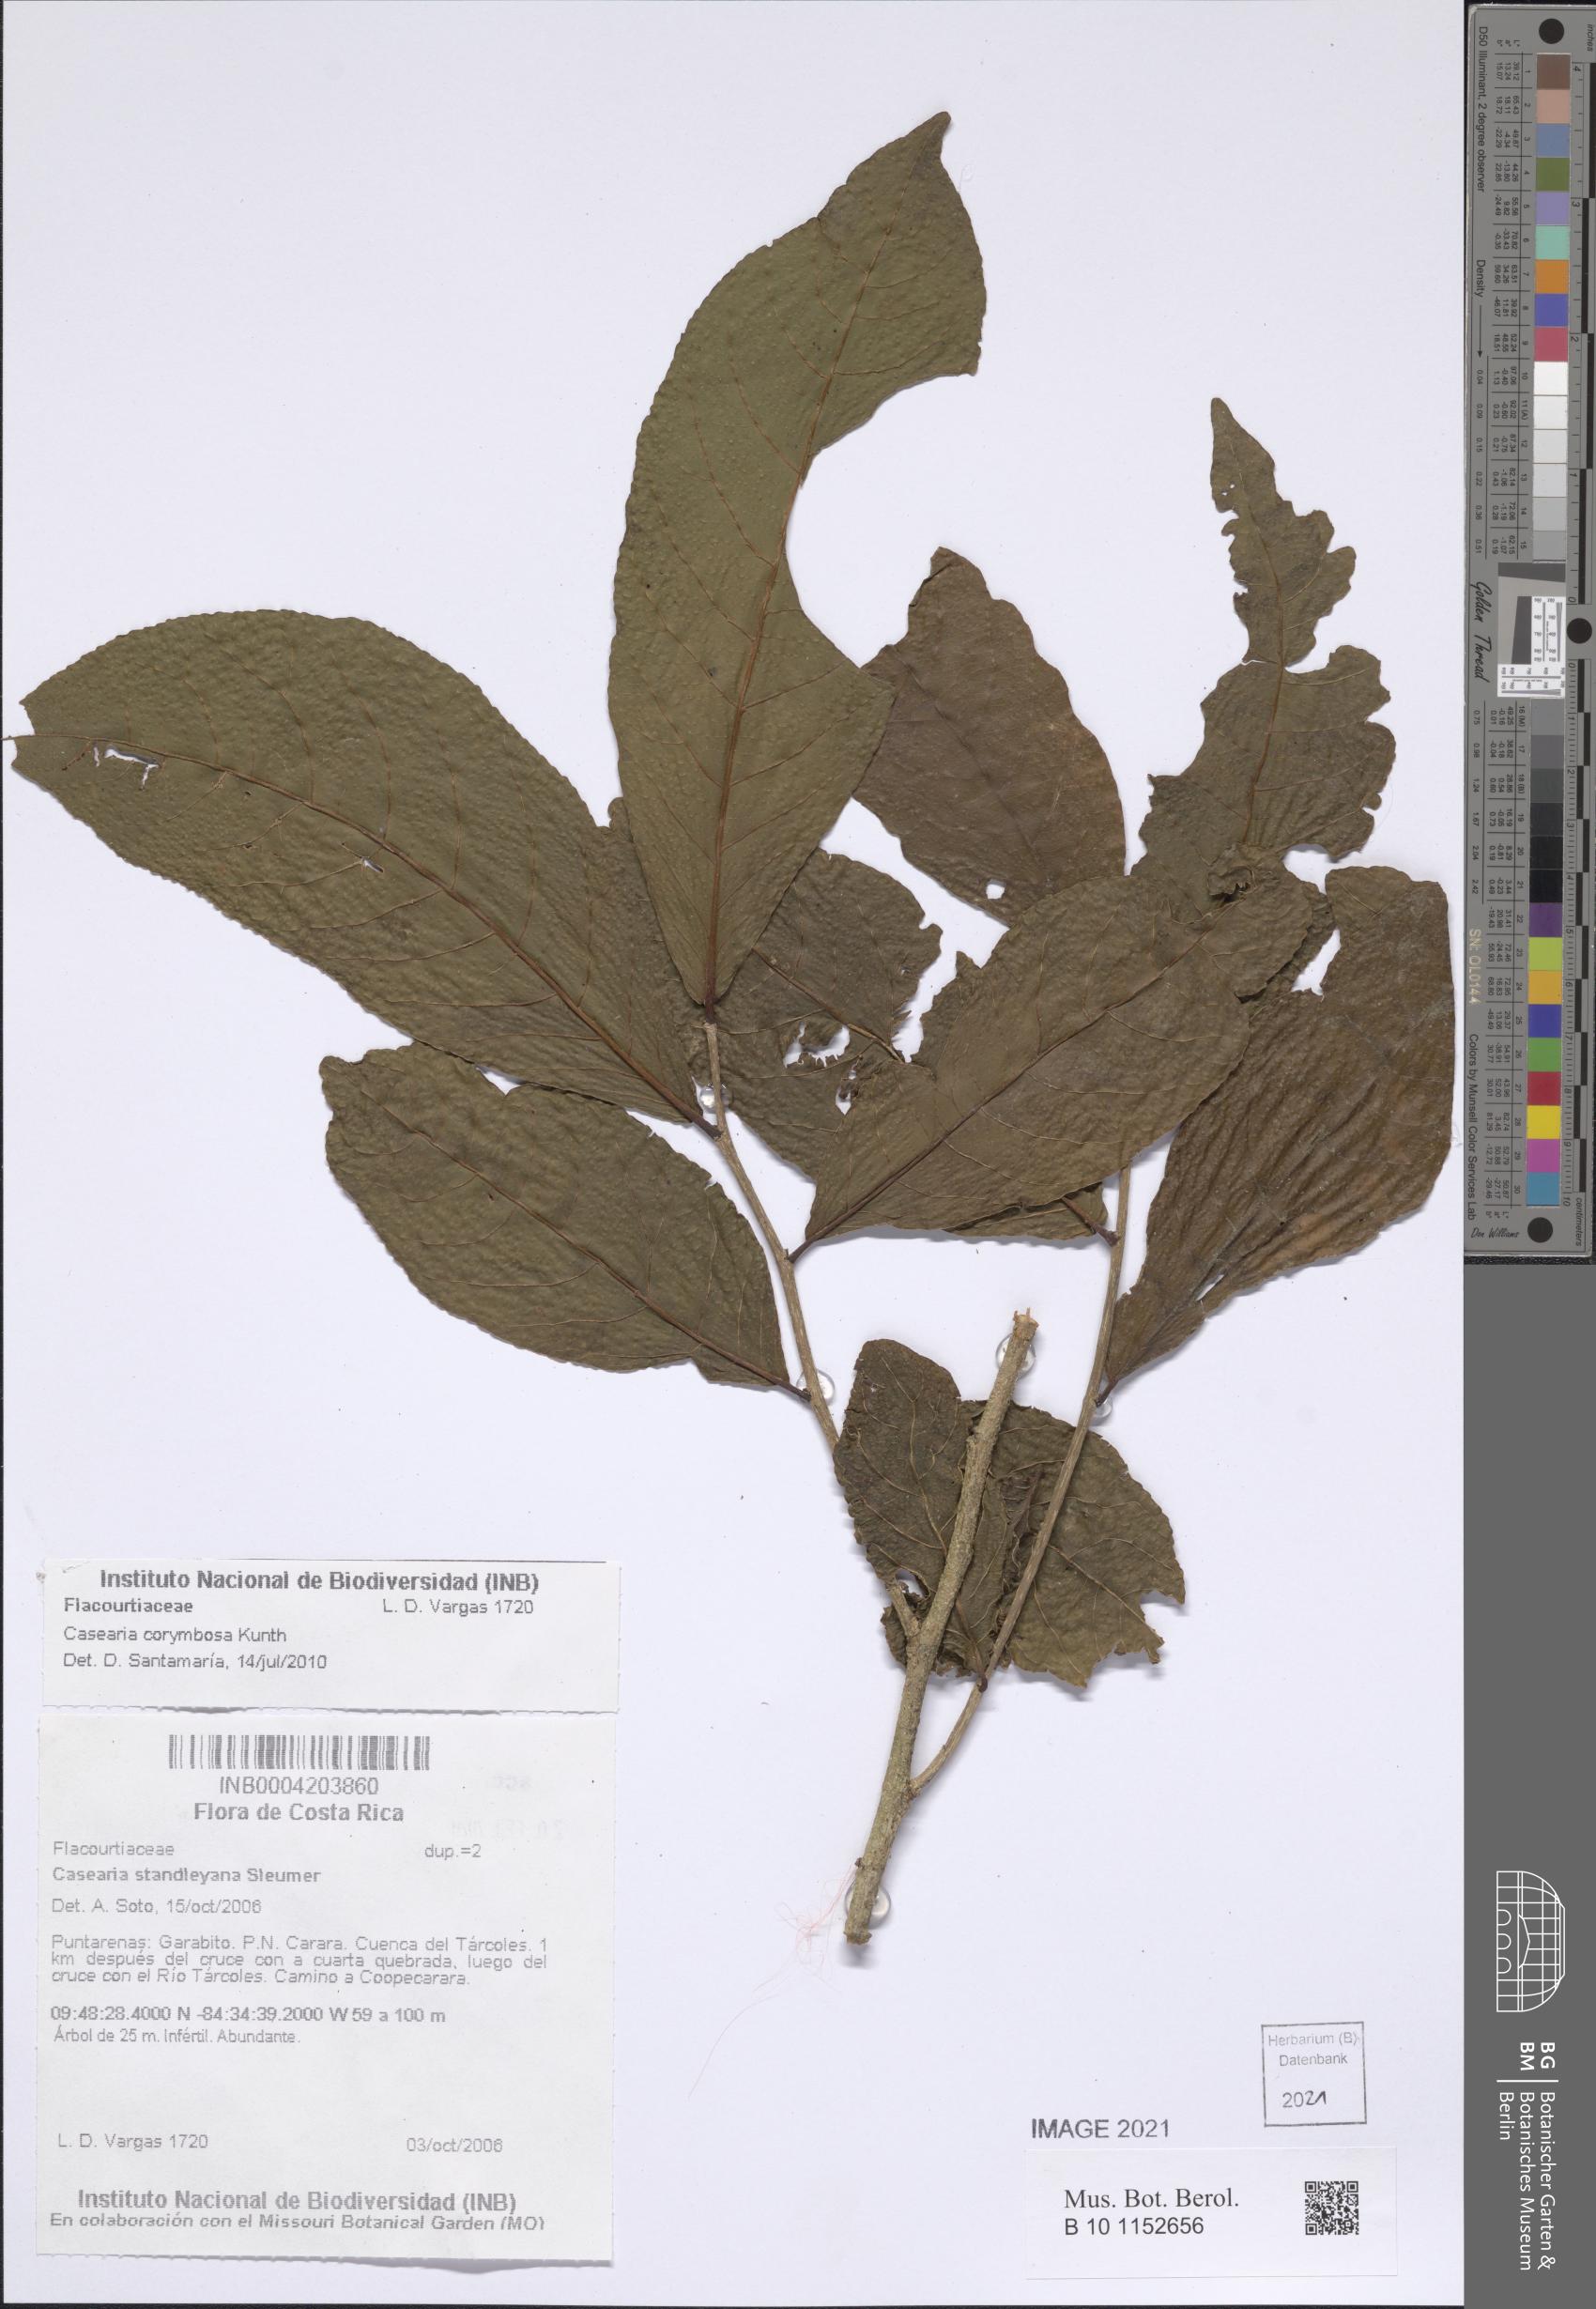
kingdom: Plantae
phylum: Tracheophyta
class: Magnoliopsida
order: Malpighiales
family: Salicaceae
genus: Casearia
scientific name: Casearia corymbosa
